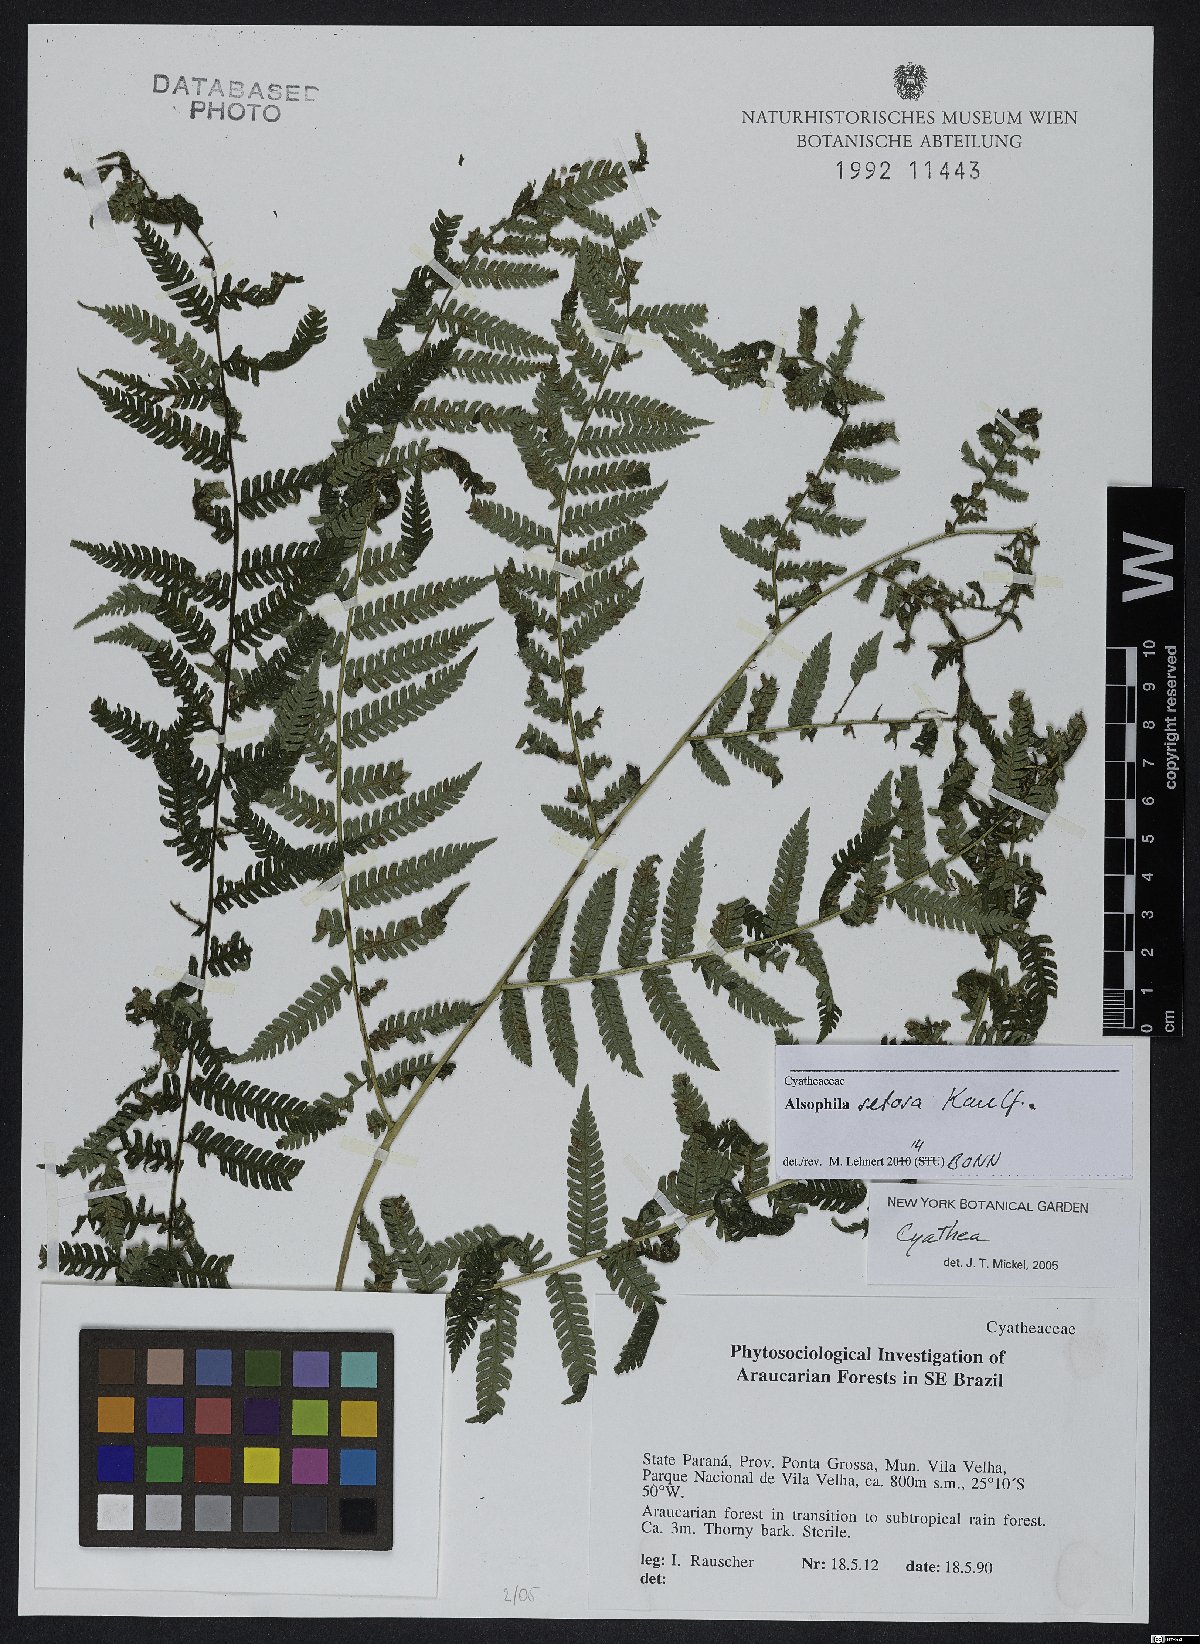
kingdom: Plantae
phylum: Tracheophyta
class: Polypodiopsida
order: Cyatheales
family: Cyatheaceae
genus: Alsophila
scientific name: Alsophila setosa
